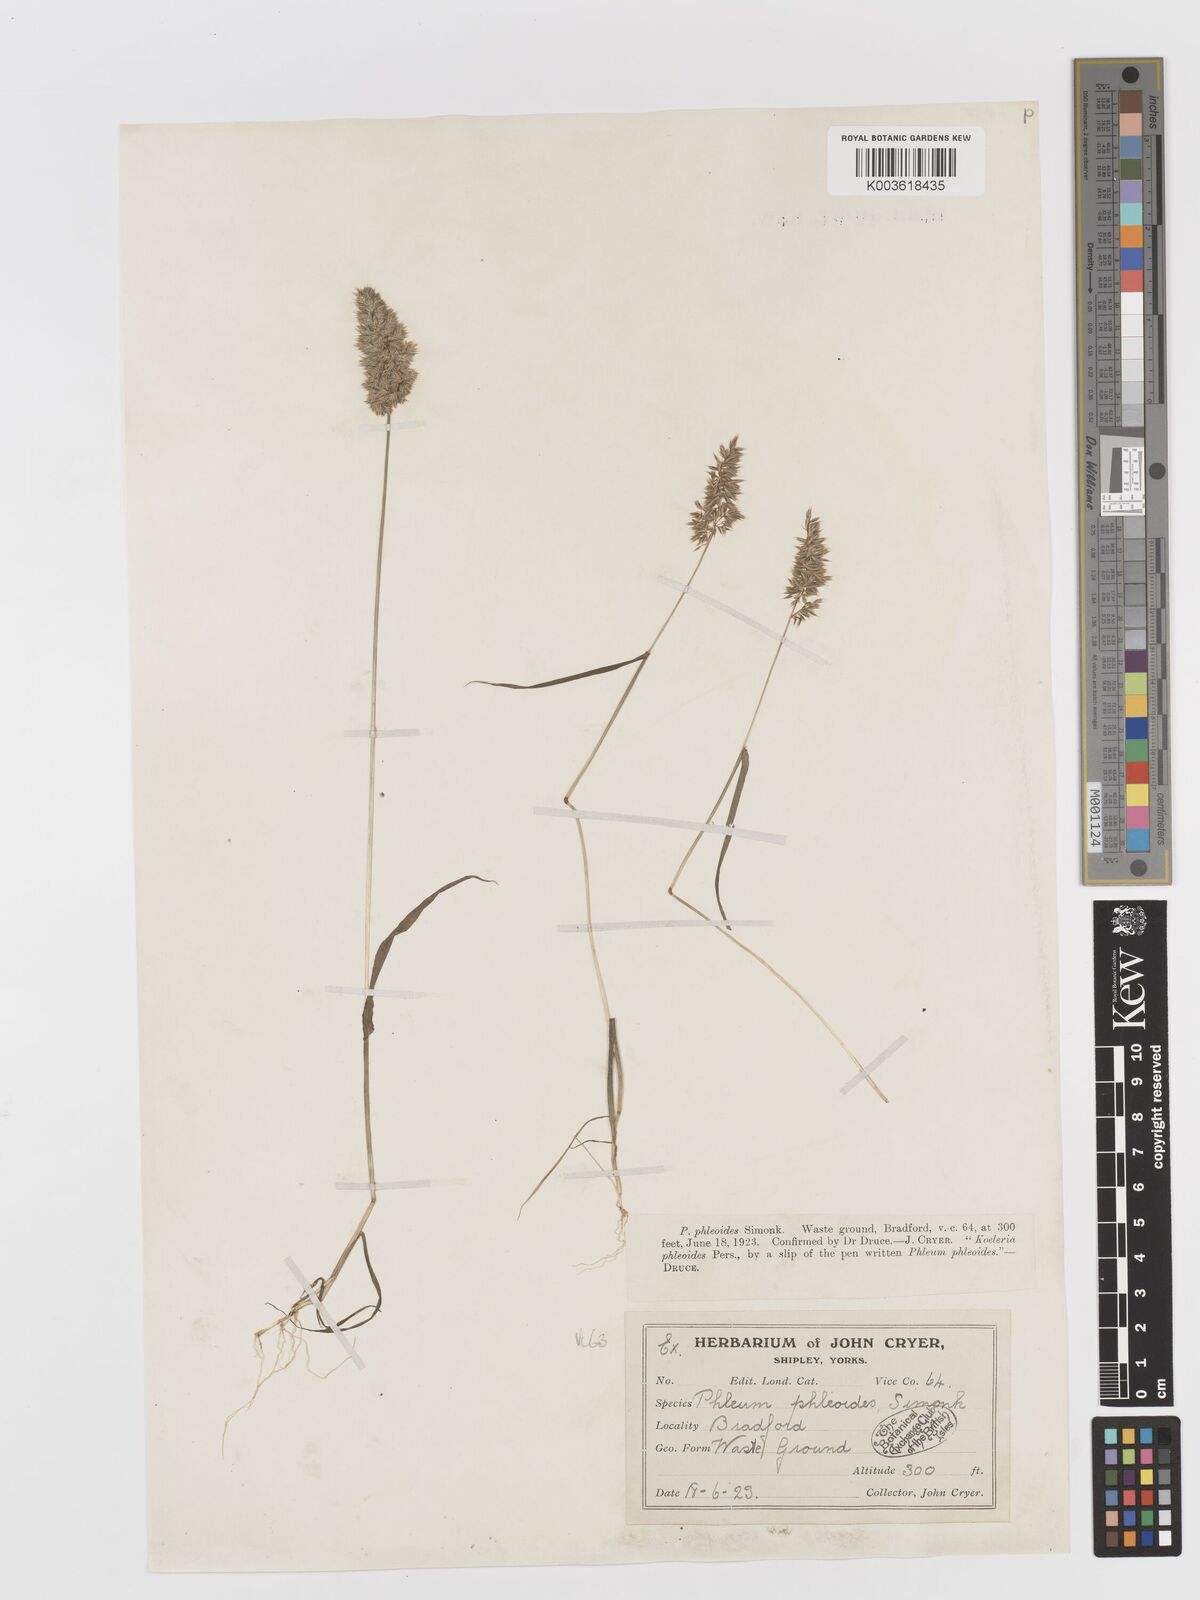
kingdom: Plantae
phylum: Tracheophyta
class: Liliopsida
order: Poales
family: Poaceae
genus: Rostraria
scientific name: Rostraria cristata
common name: Mediterranean hair-grass
